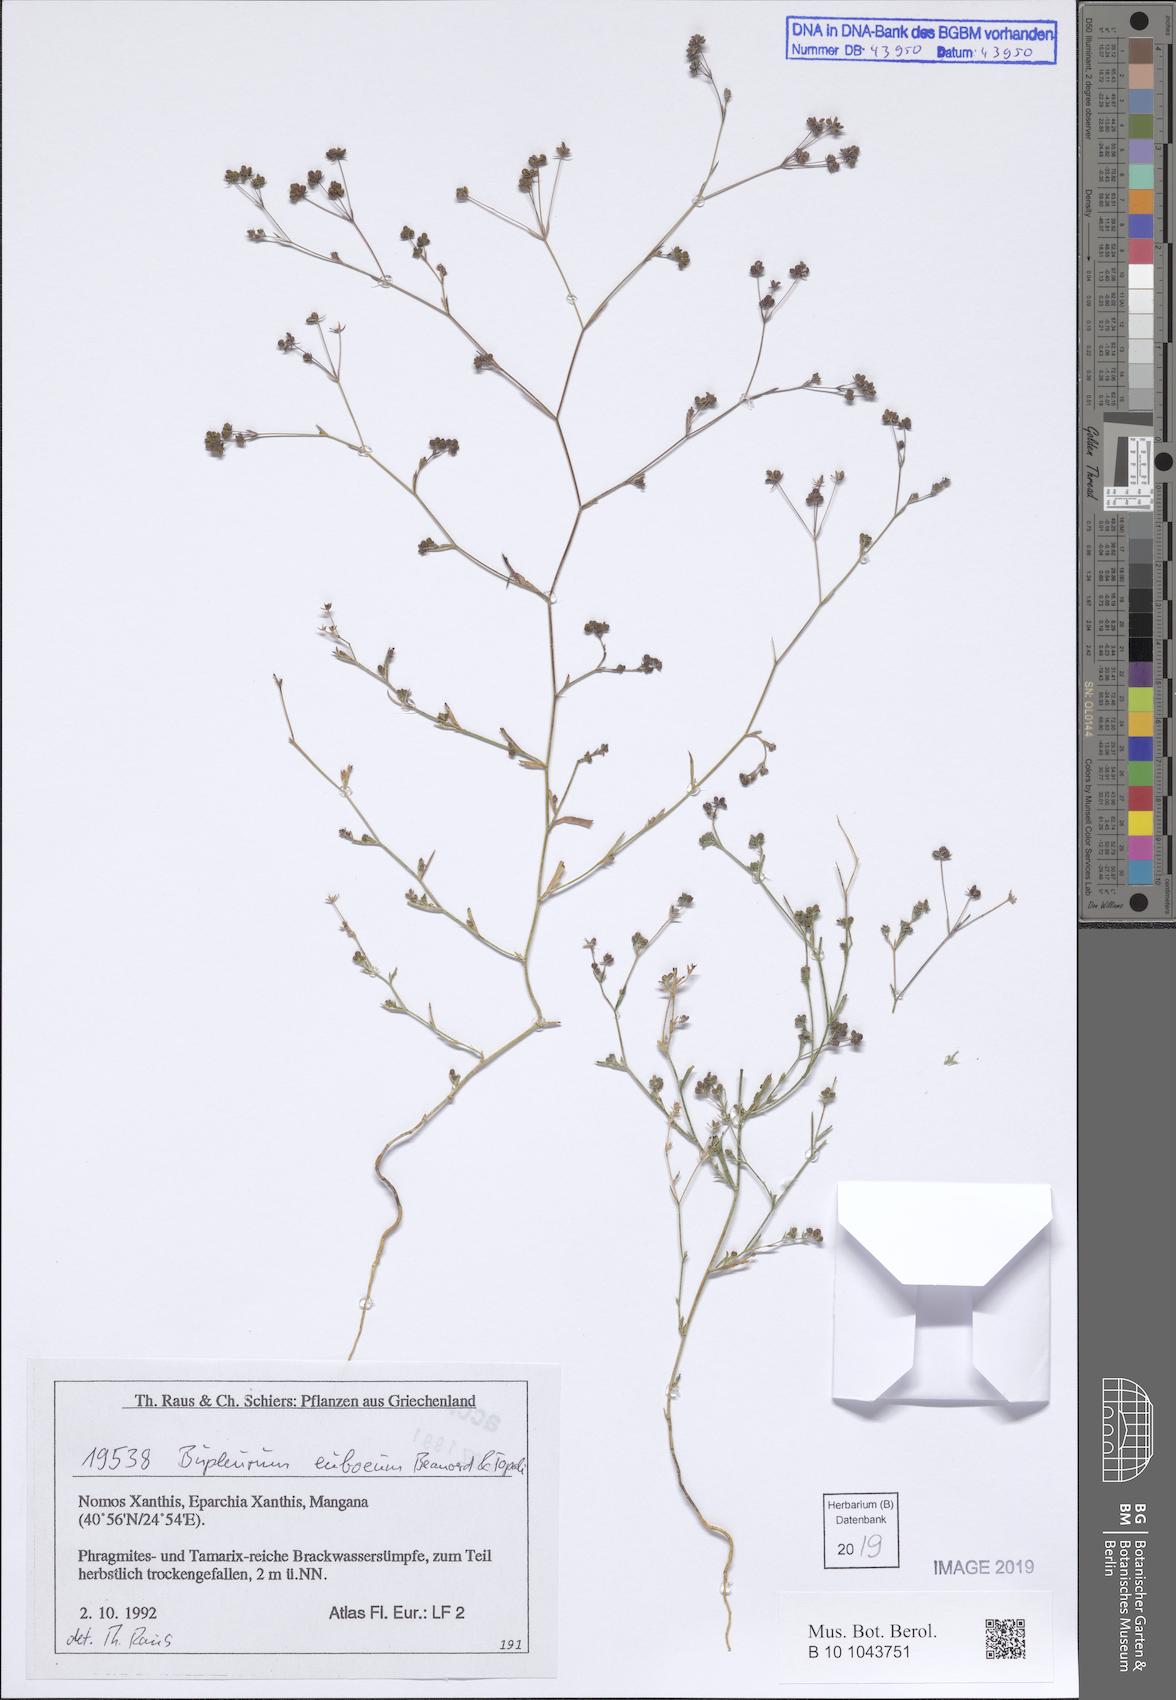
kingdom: Plantae
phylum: Tracheophyta
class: Magnoliopsida
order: Apiales
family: Apiaceae
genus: Bupleurum
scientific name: Bupleurum euboeum
